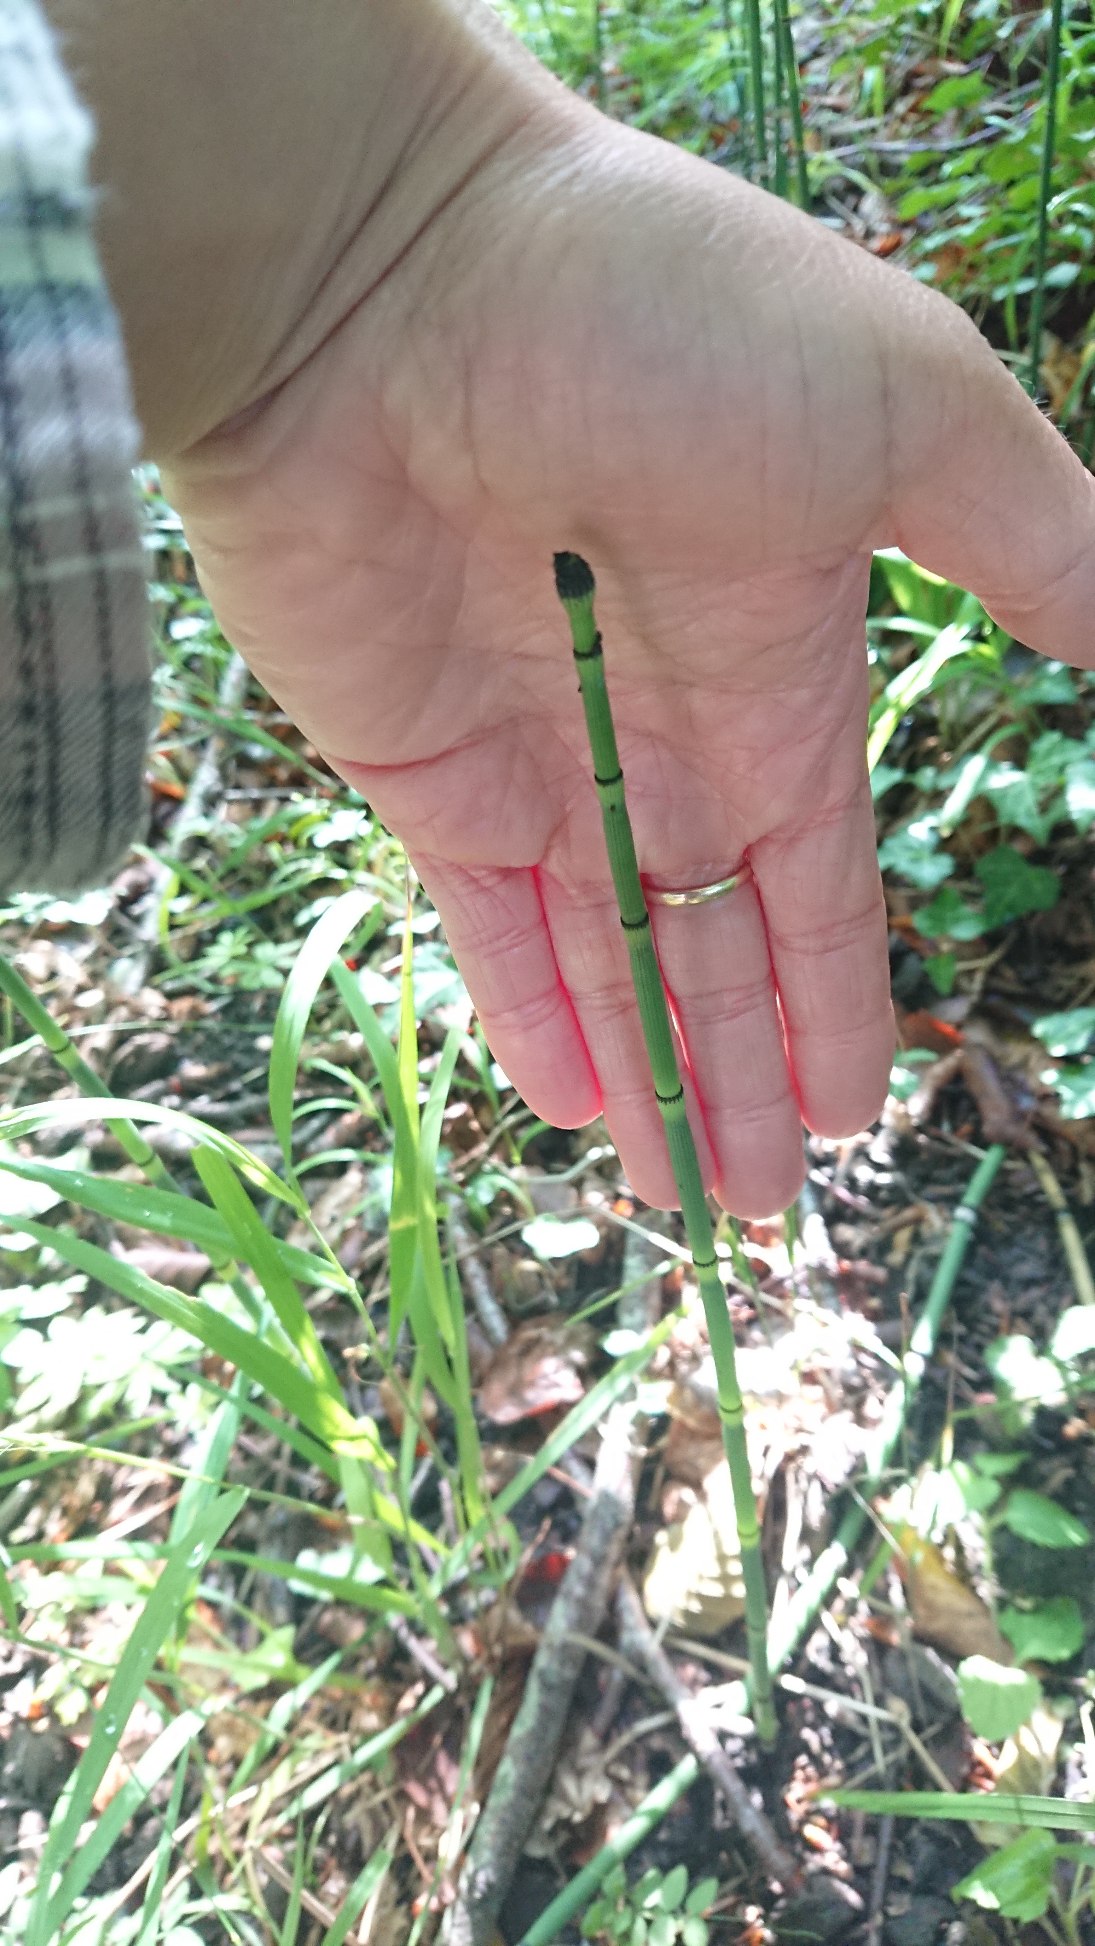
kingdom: Plantae
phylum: Tracheophyta
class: Polypodiopsida
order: Equisetales
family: Equisetaceae
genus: Equisetum
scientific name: Equisetum hyemale
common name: Skavgræs
